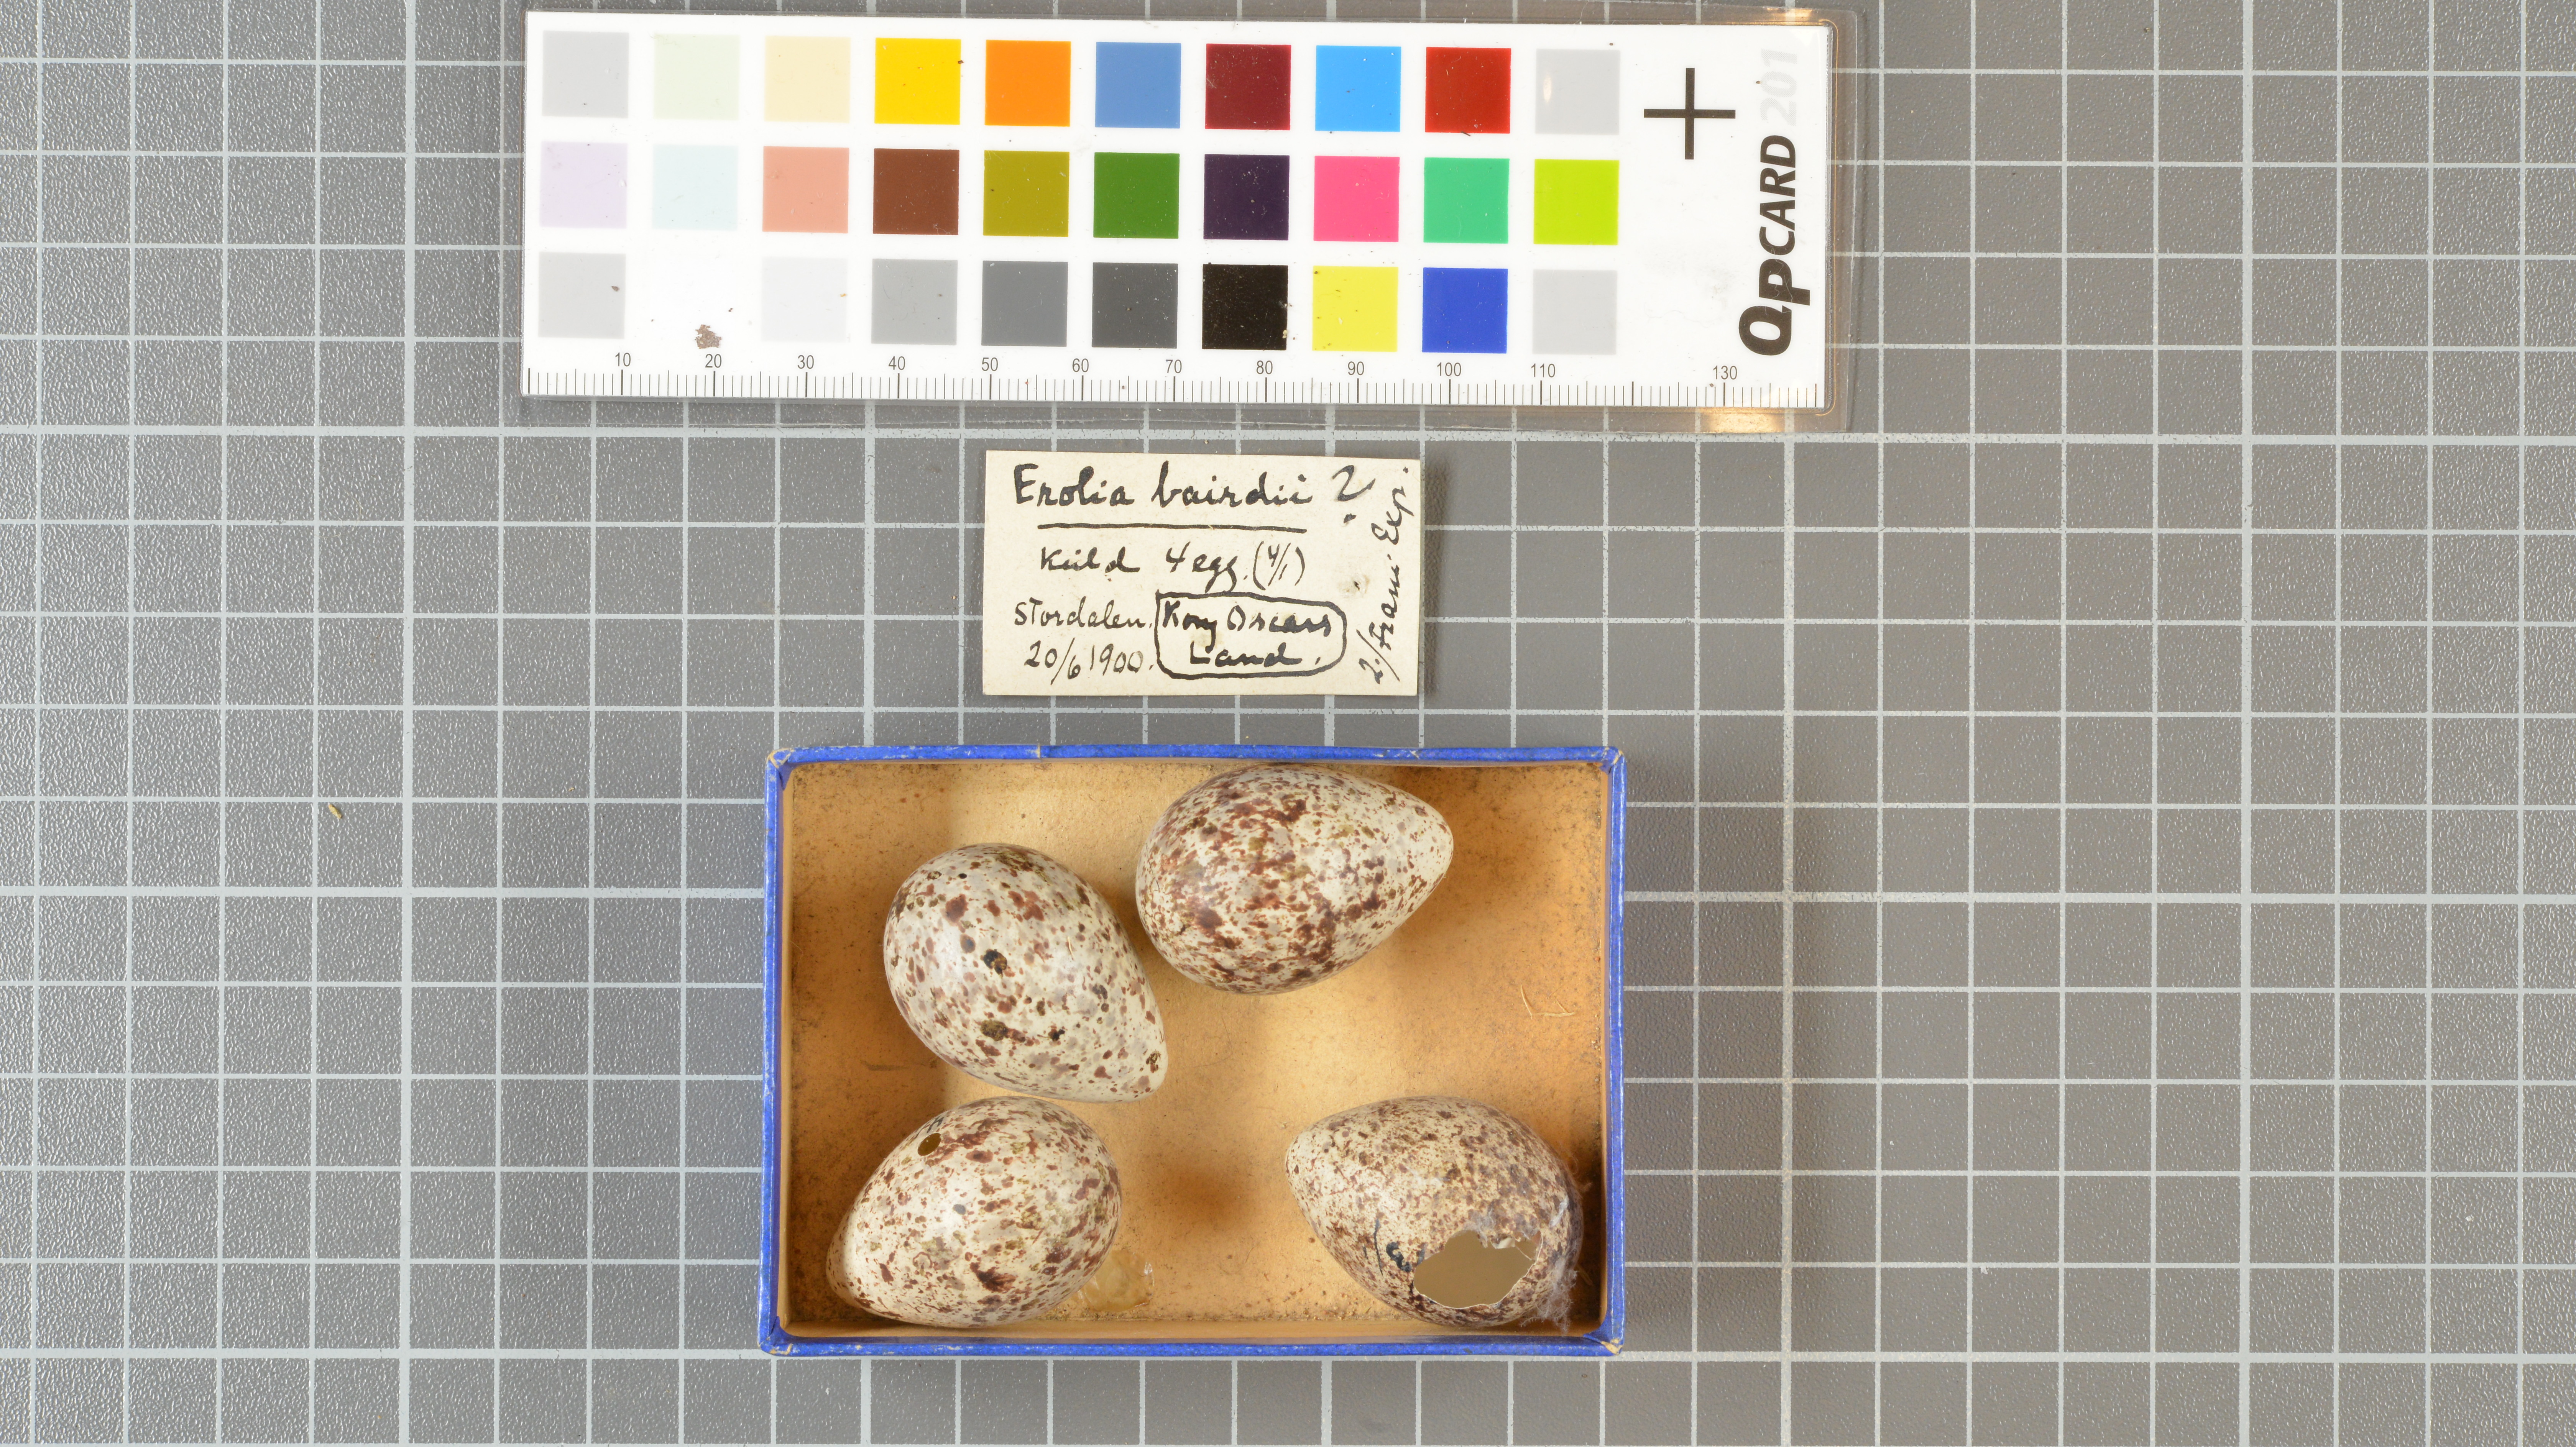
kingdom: Animalia
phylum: Chordata
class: Aves
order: Charadriiformes
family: Scolopacidae
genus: Calidris
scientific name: Calidris bairdii
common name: Baird's sandpiper
